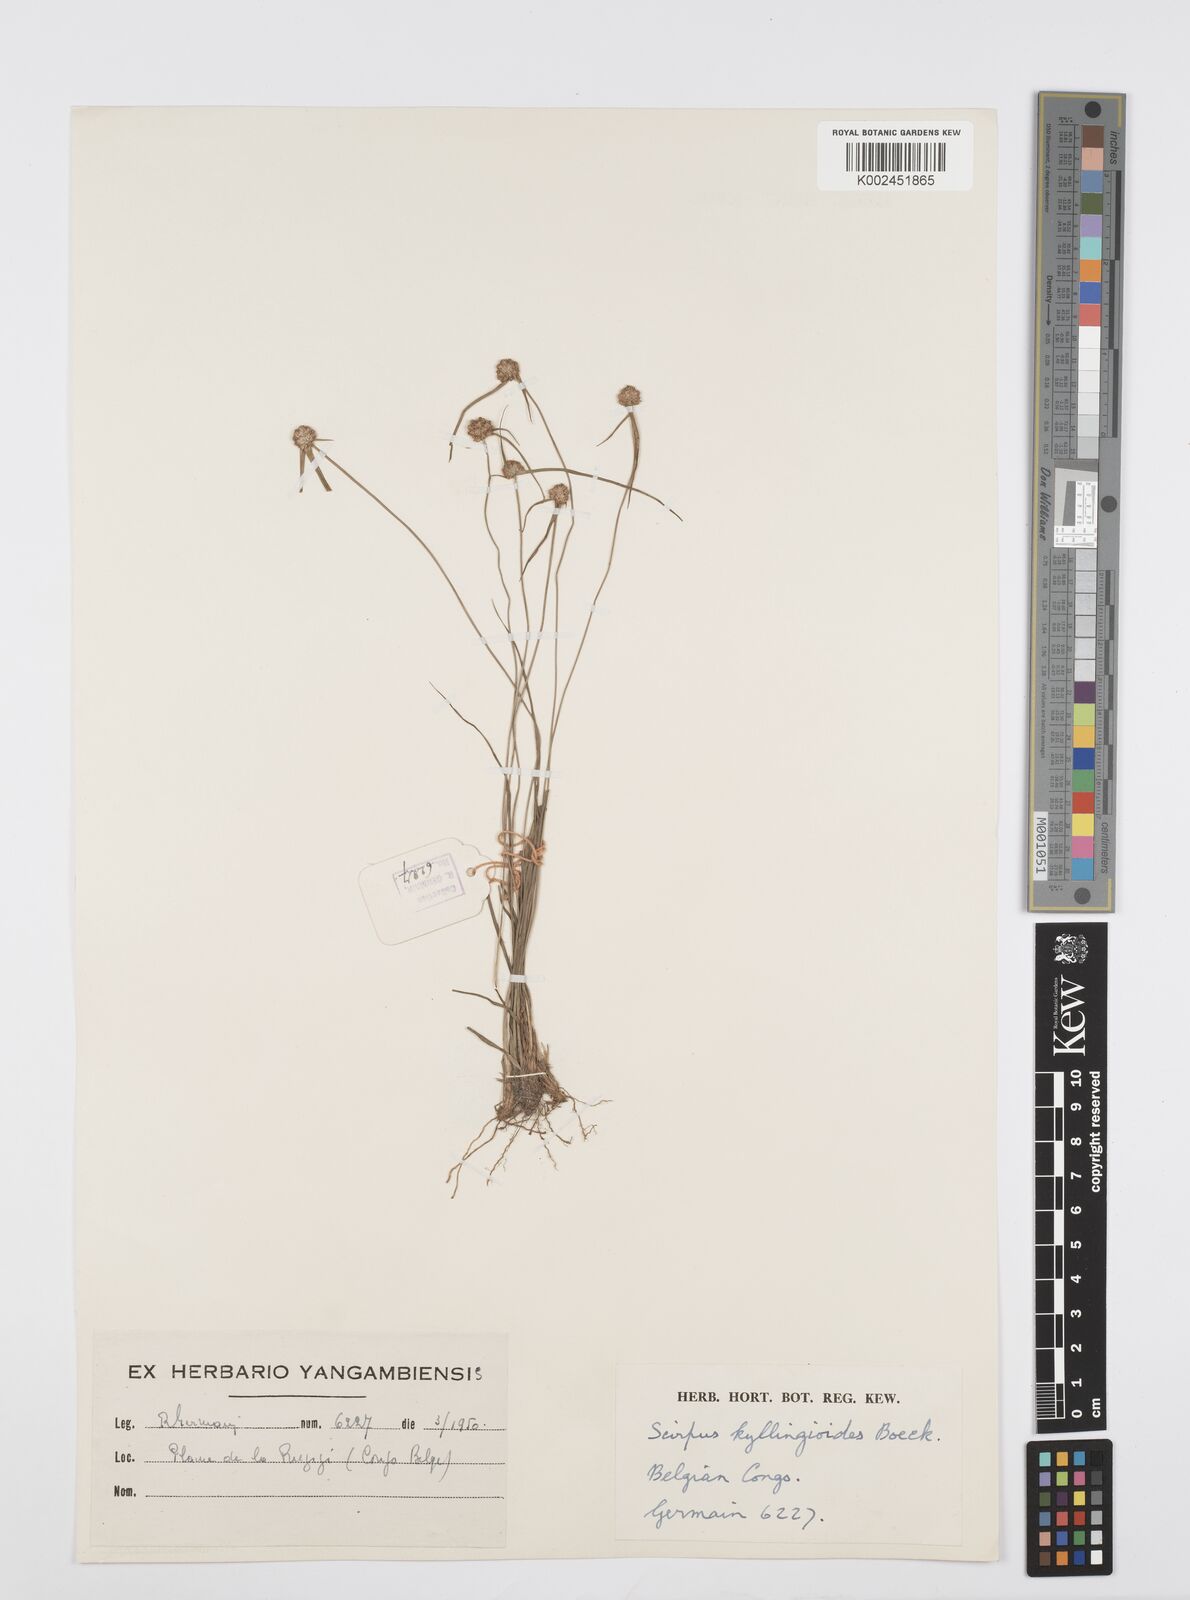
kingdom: Plantae
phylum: Tracheophyta
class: Liliopsida
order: Poales
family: Cyperaceae
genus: Cyperus
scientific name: Cyperus microcephalus
